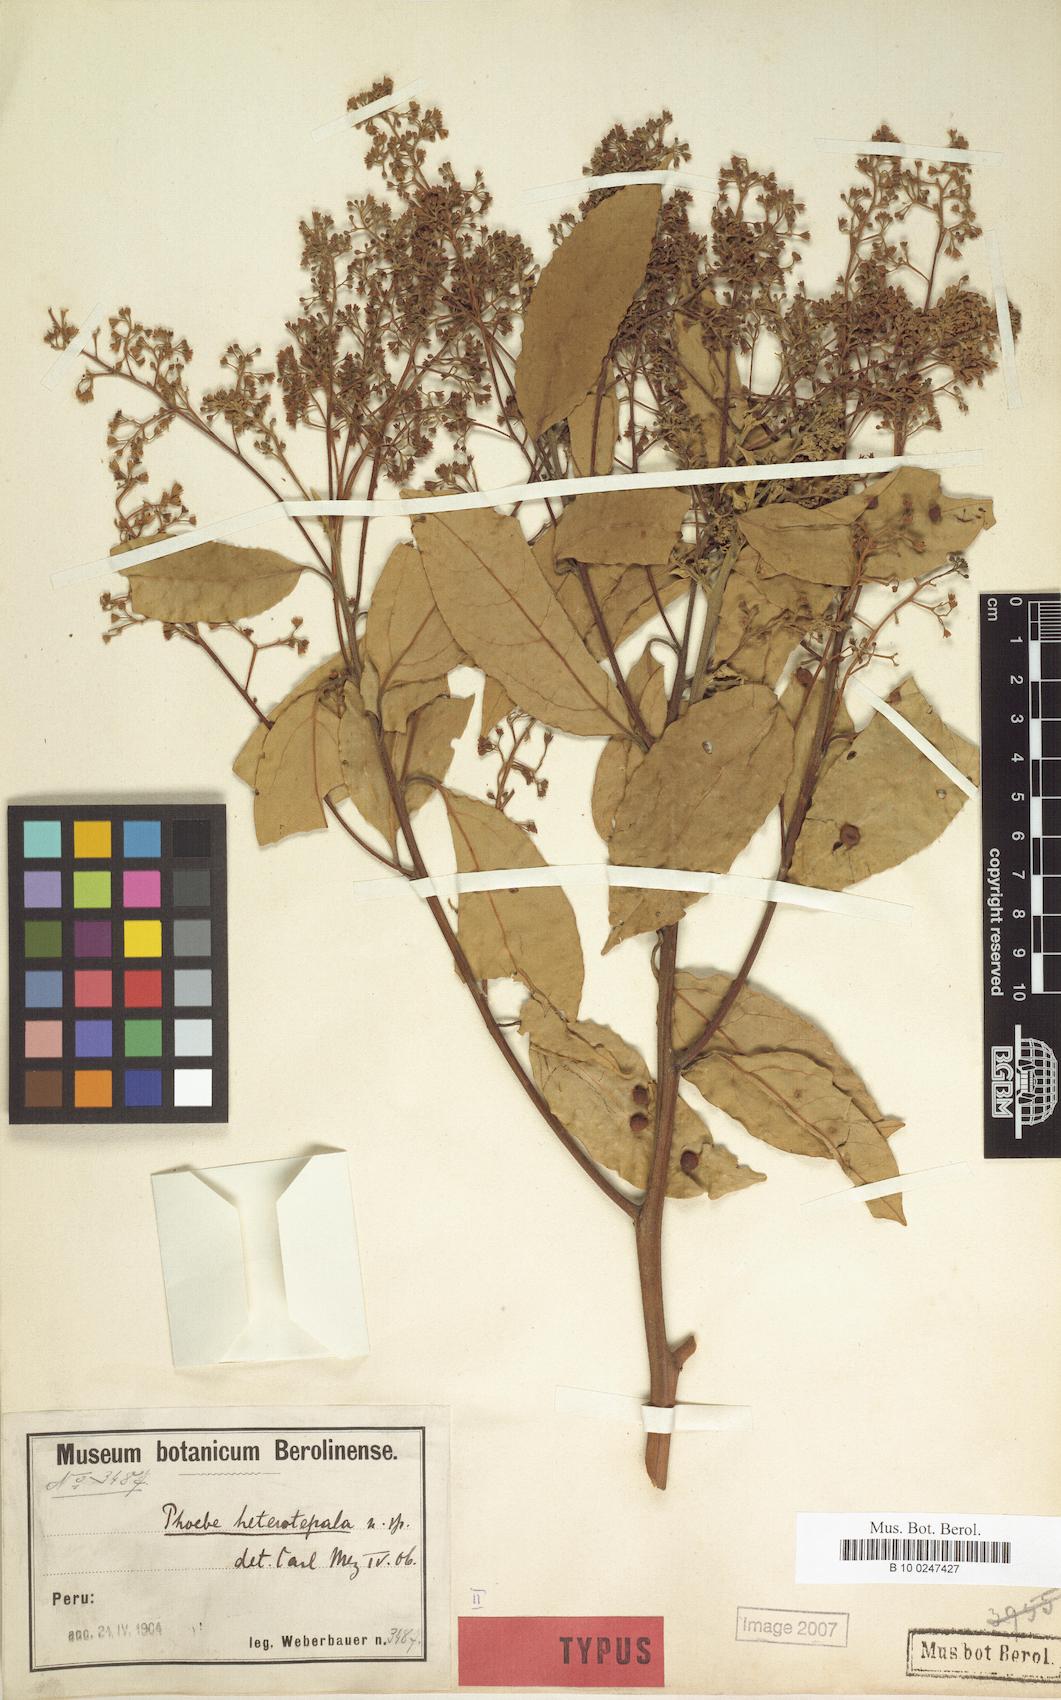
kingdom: Plantae
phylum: Tracheophyta
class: Magnoliopsida
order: Laurales
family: Lauraceae
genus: Aiouea
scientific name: Aiouea montana
